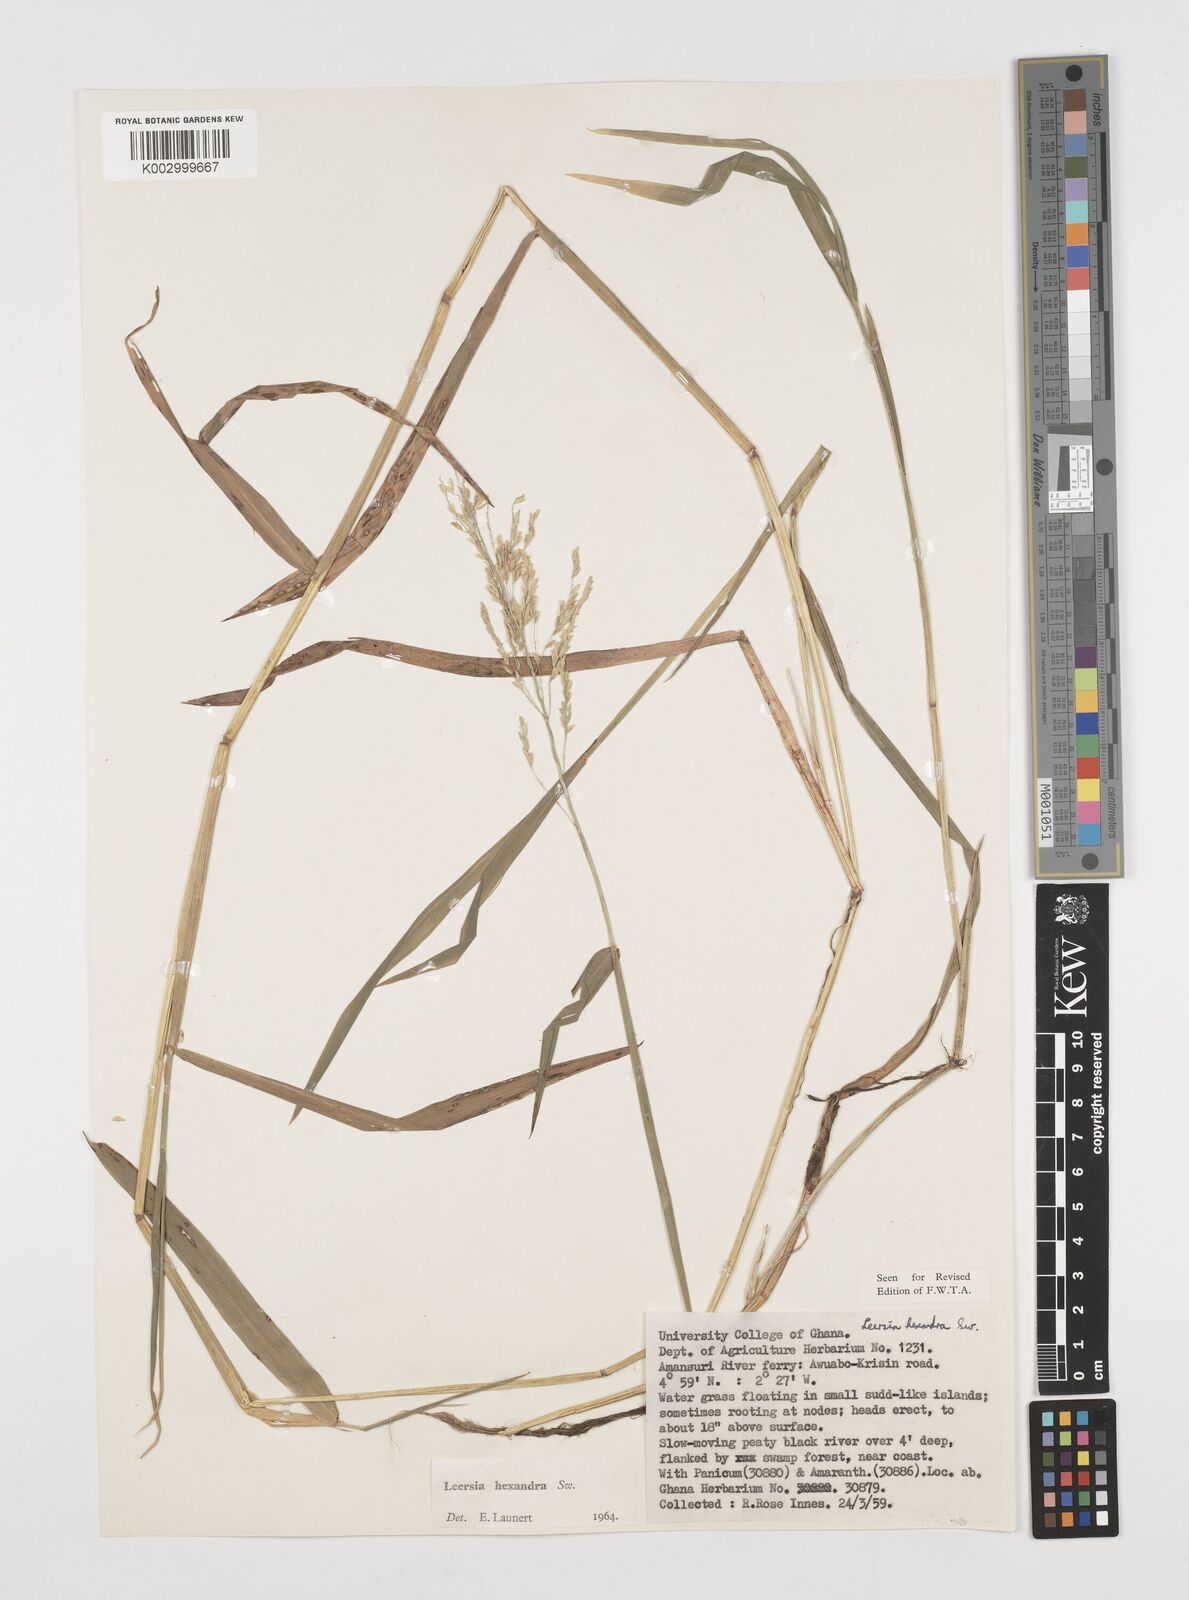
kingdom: Plantae
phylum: Tracheophyta
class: Liliopsida
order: Poales
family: Poaceae
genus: Leersia
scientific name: Leersia hexandra
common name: Southern cut grass
